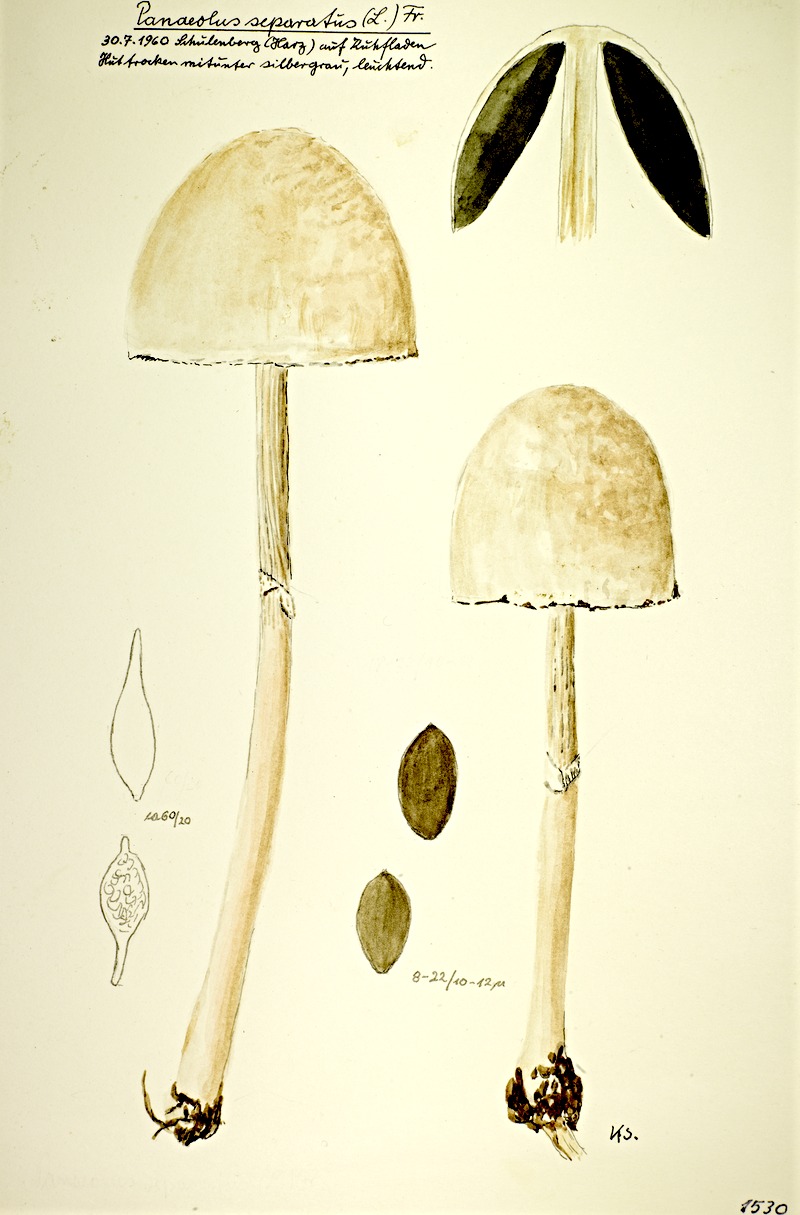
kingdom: Fungi
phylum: Basidiomycota
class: Agaricomycetes
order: Agaricales
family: Bolbitiaceae
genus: Panaeolus
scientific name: Panaeolus semiovatus
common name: Shiny mottlegill
